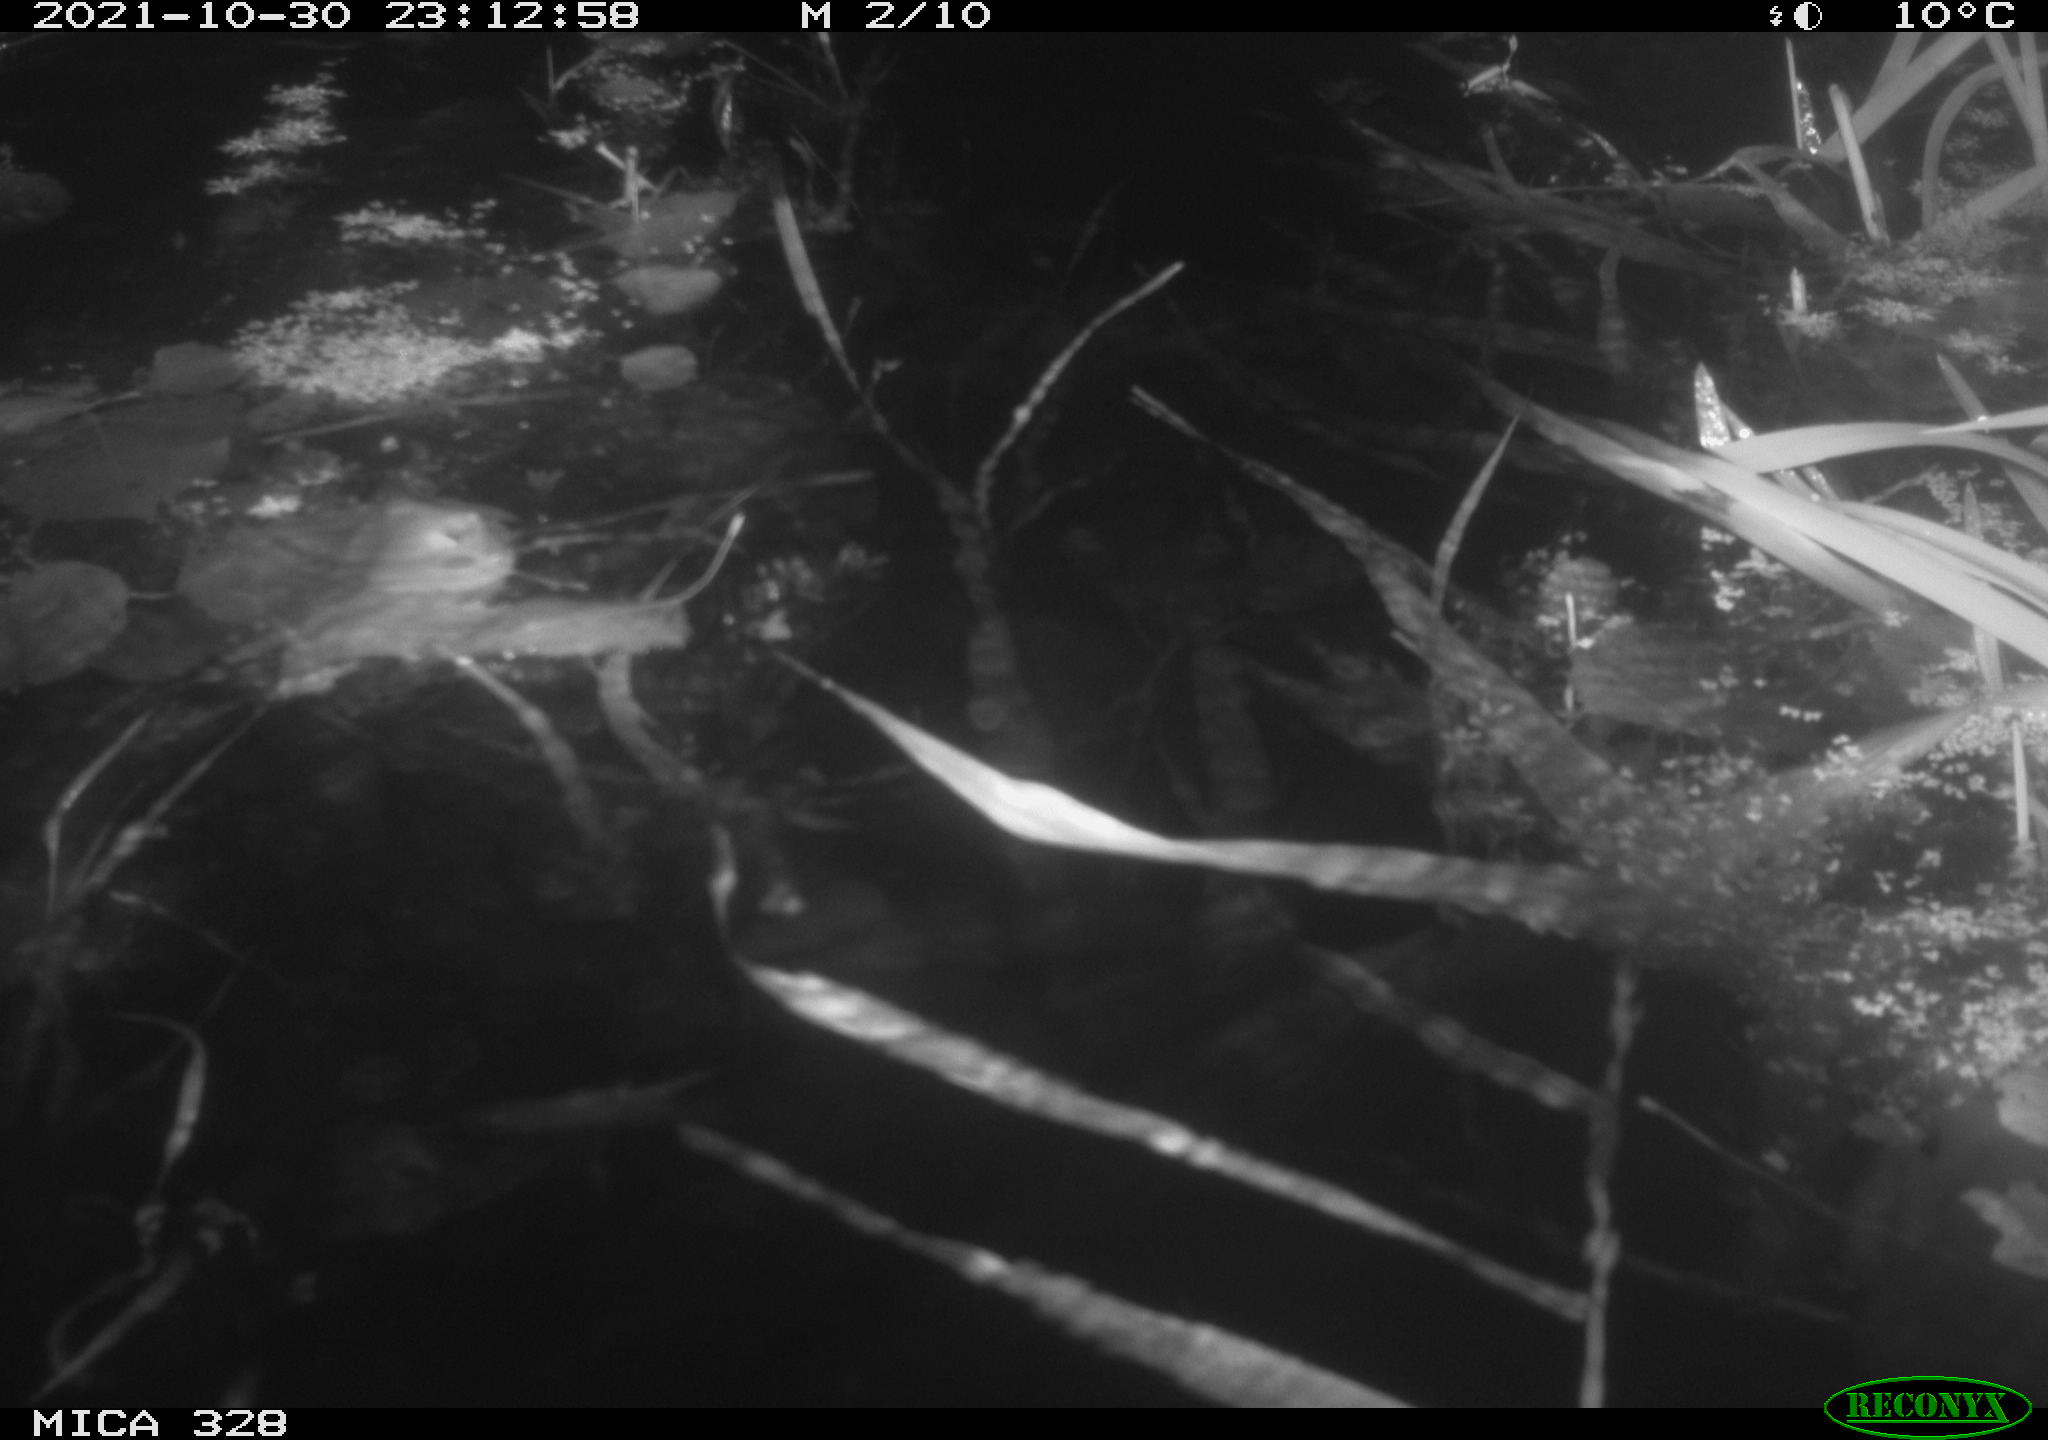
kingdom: Animalia
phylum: Chordata
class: Mammalia
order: Rodentia
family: Cricetidae
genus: Ondatra
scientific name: Ondatra zibethicus
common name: Muskrat
